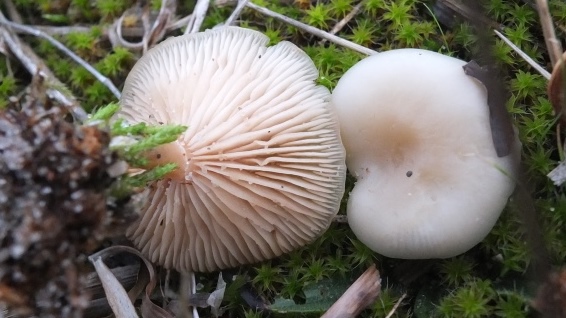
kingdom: Fungi
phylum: Basidiomycota
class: Agaricomycetes
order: Agaricales
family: Tricholomataceae
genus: Clitocybe
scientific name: Clitocybe agrestis
